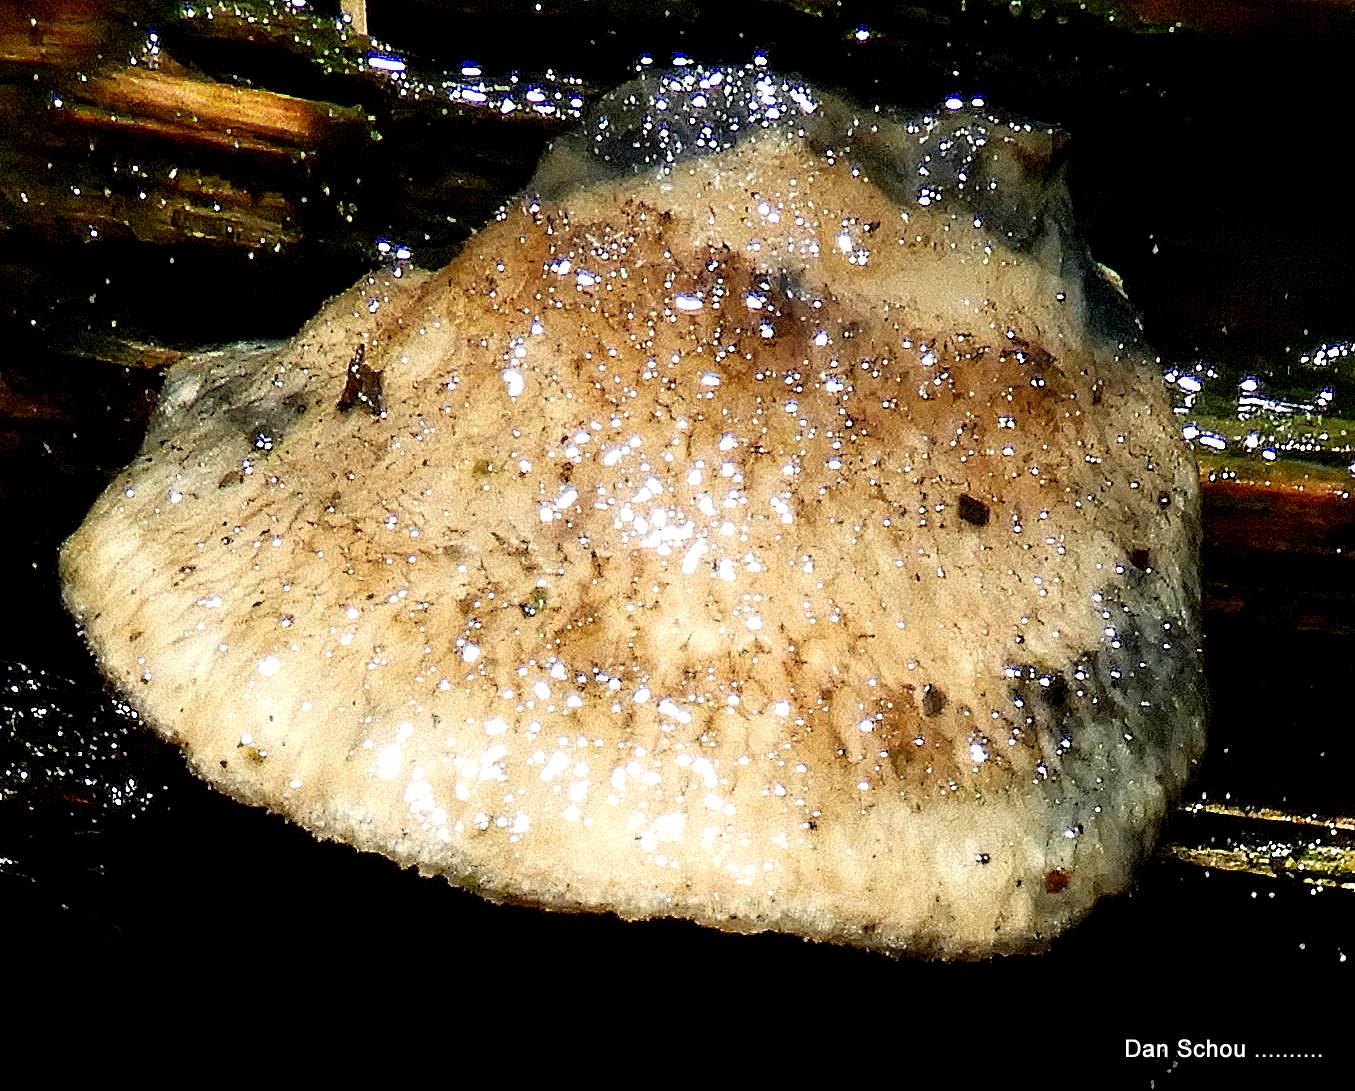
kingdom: Fungi
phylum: Basidiomycota
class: Agaricomycetes
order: Polyporales
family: Dacryobolaceae
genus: Postia
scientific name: Postia
